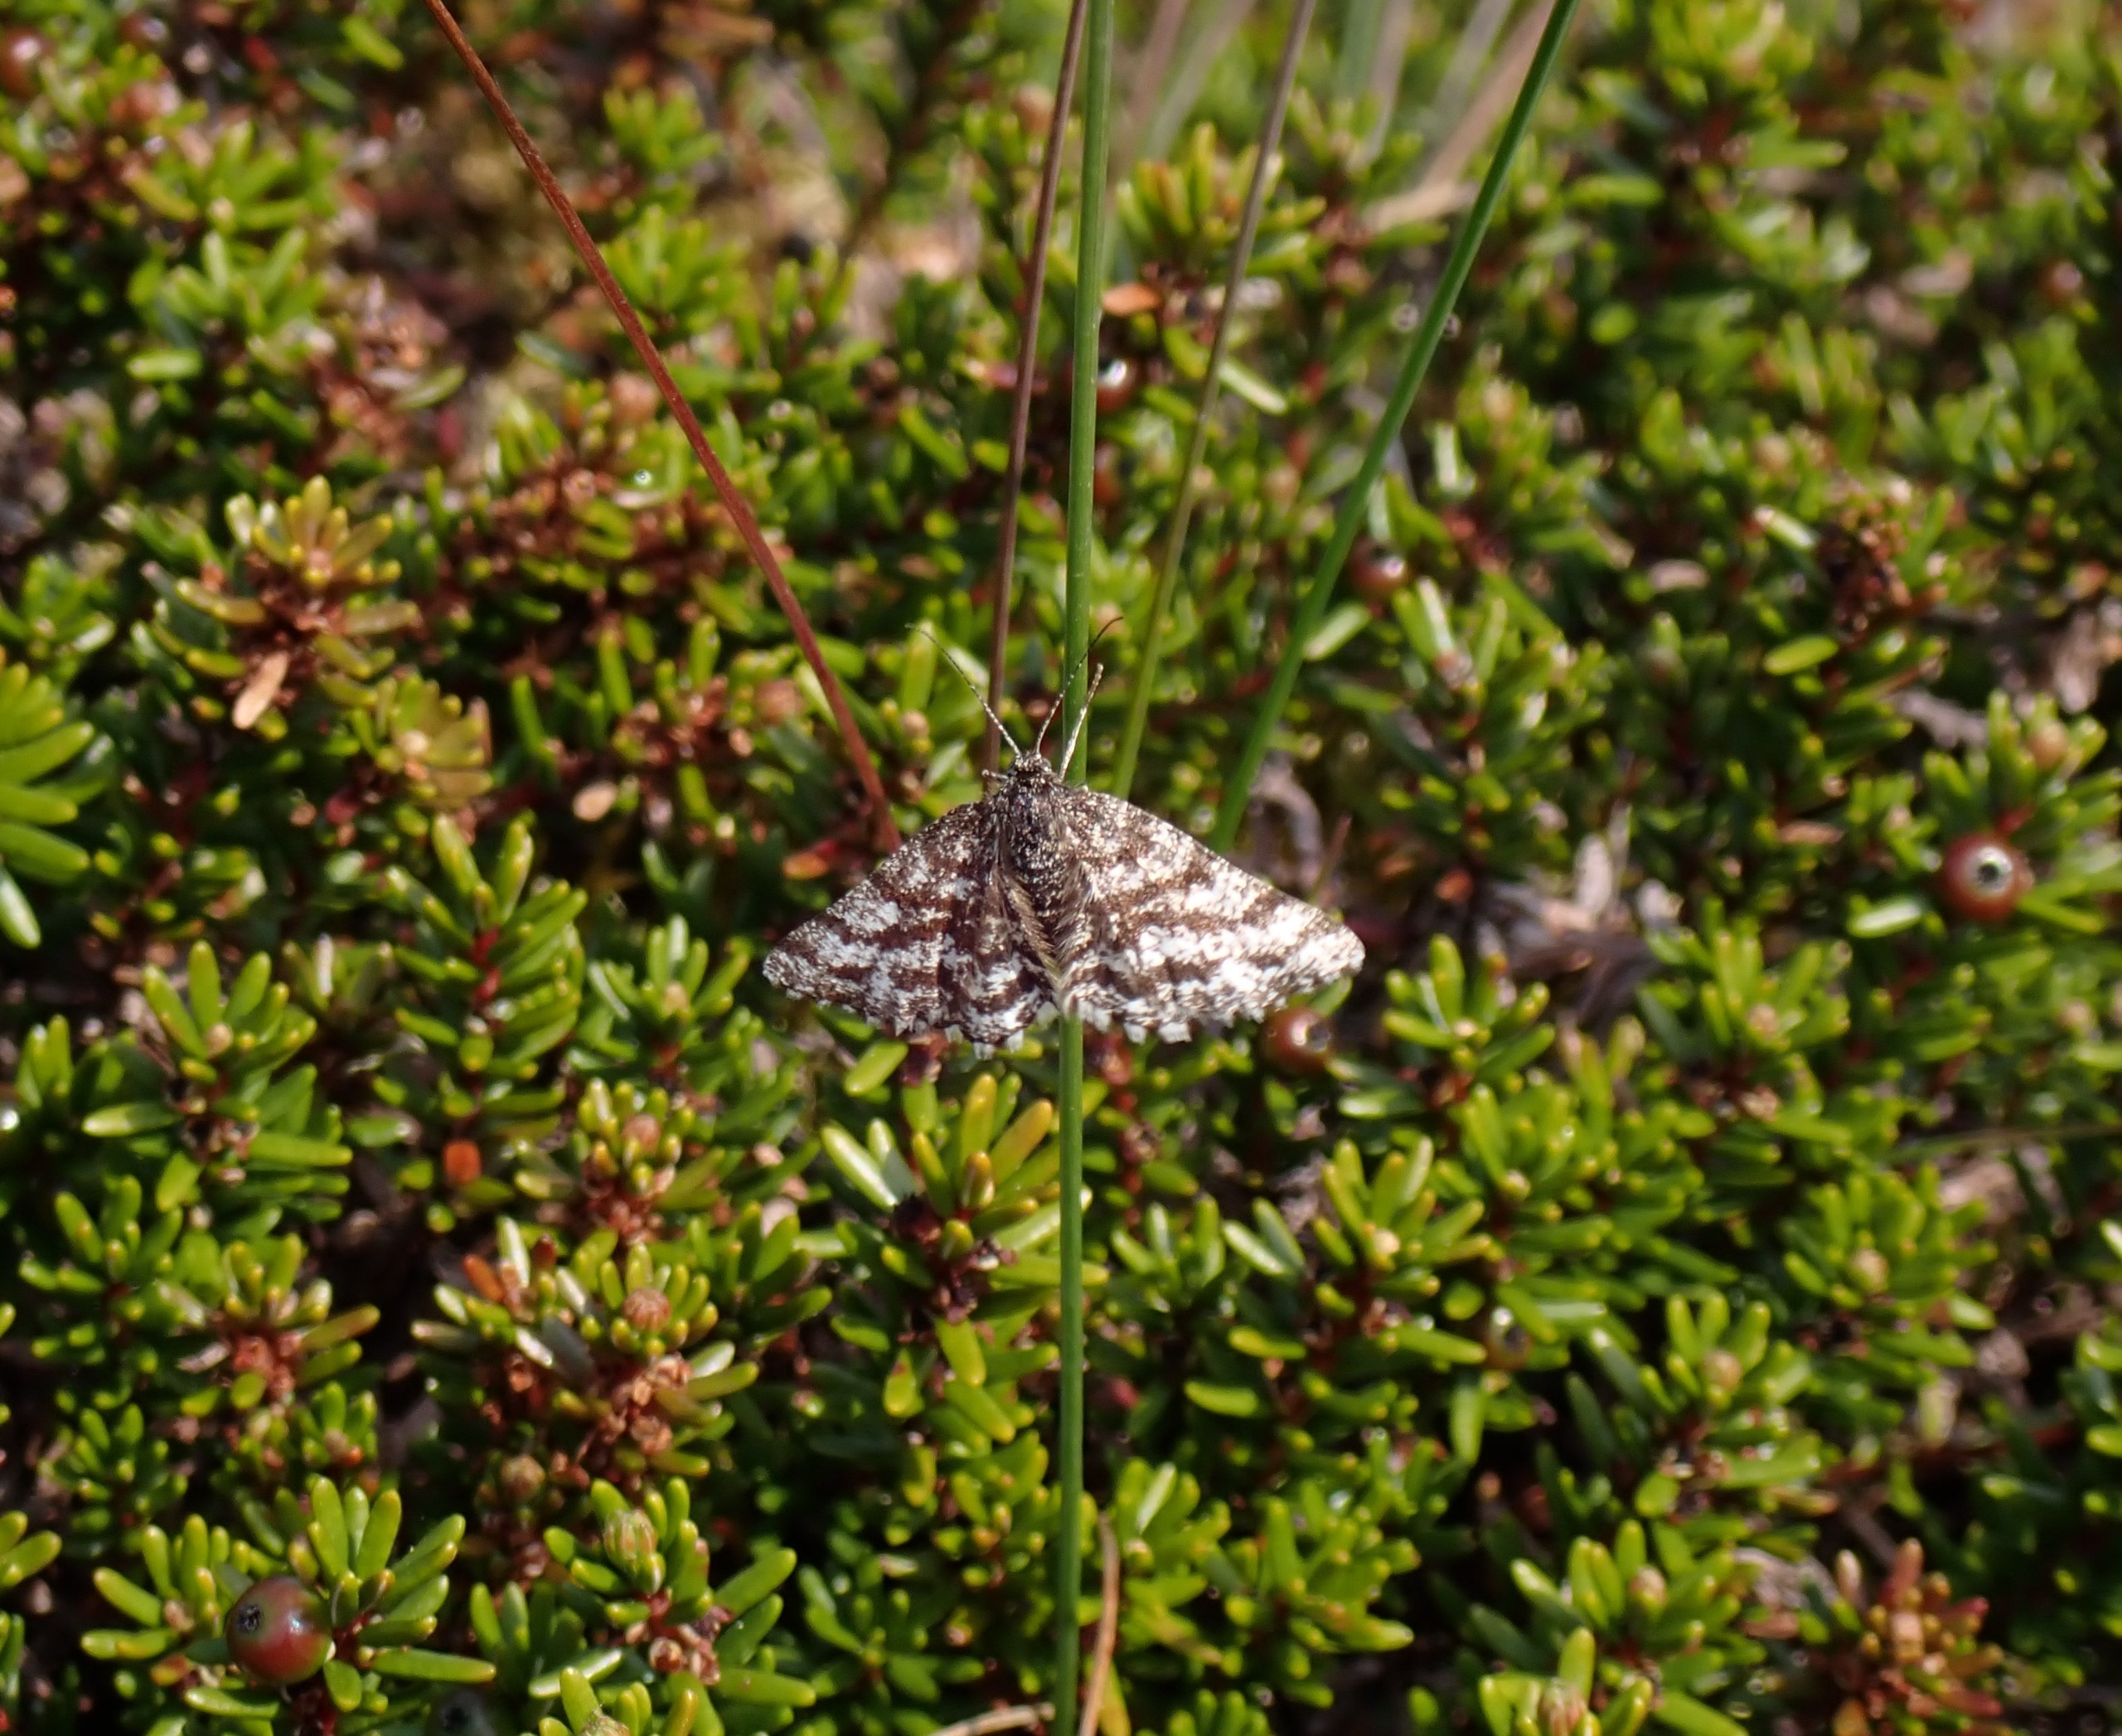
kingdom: Animalia
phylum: Arthropoda
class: Insecta
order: Lepidoptera
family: Geometridae
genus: Ematurga
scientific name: Ematurga atomaria
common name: Lyngmåler
